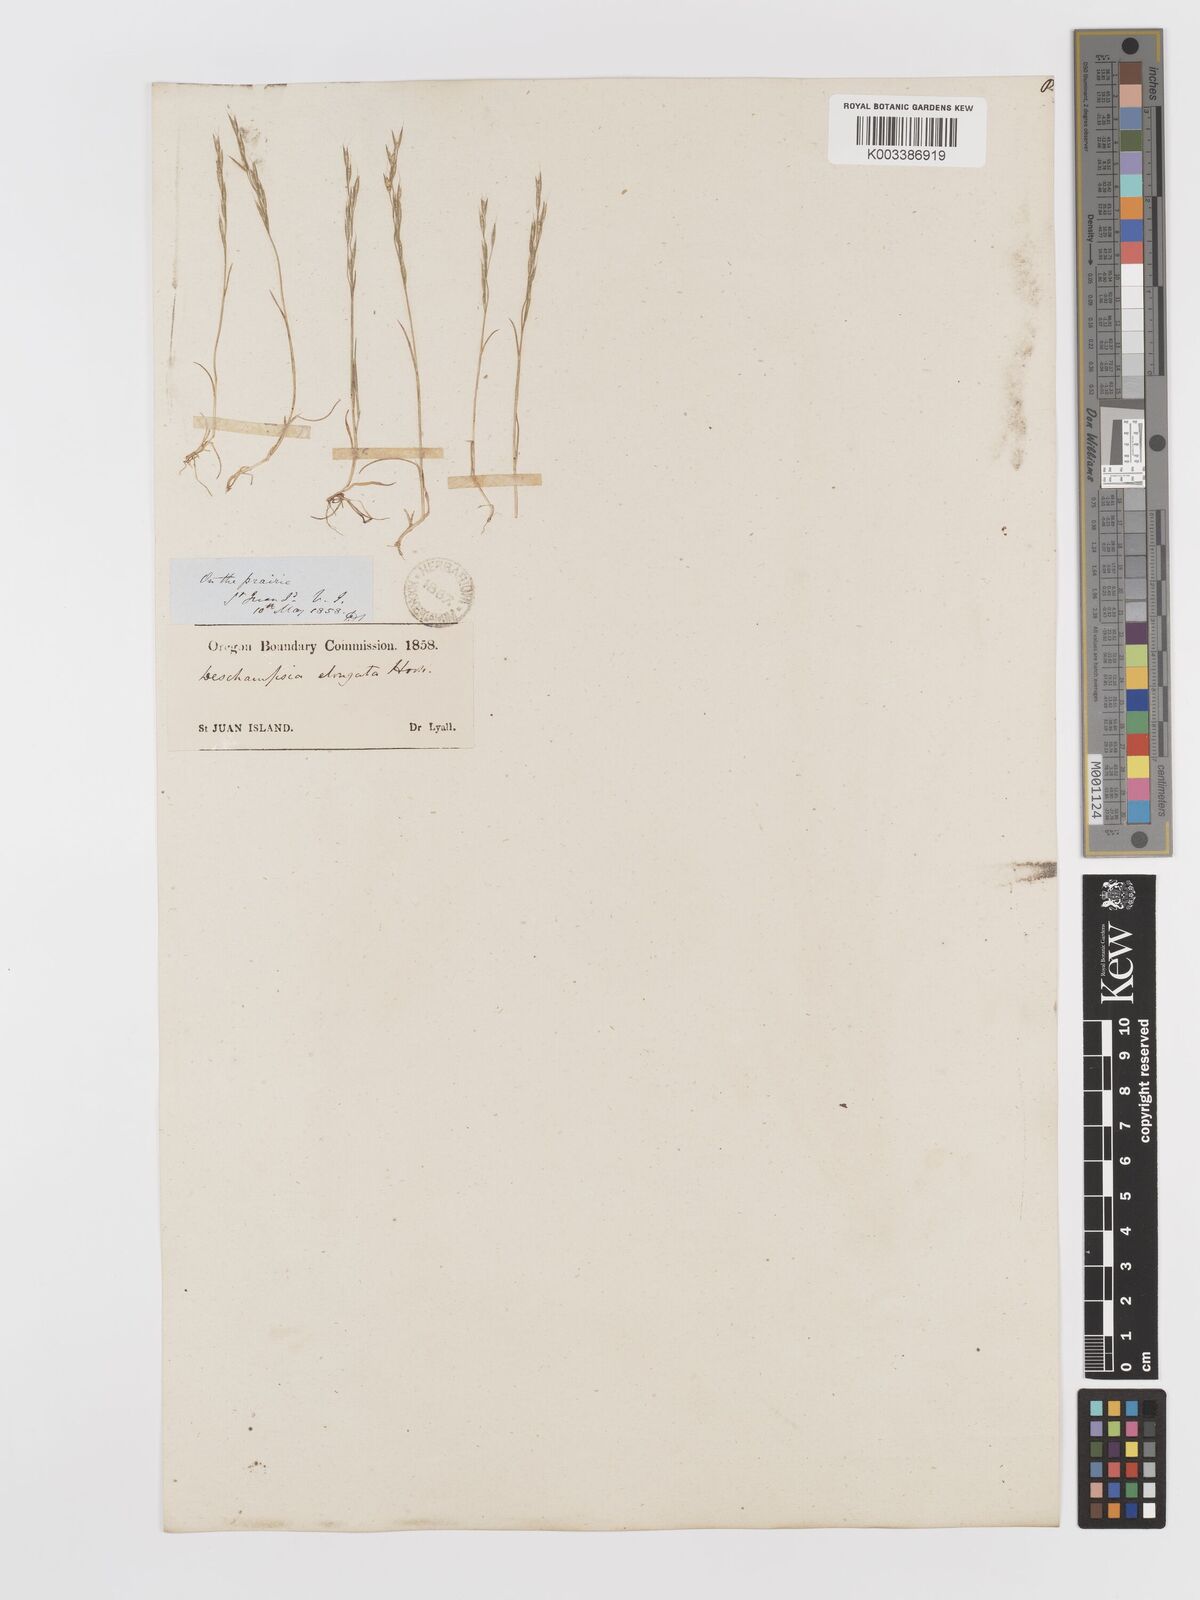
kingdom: Plantae
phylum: Tracheophyta
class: Liliopsida
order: Poales
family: Poaceae
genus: Deschampsia
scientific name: Deschampsia elongata
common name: Slender hairgrass
